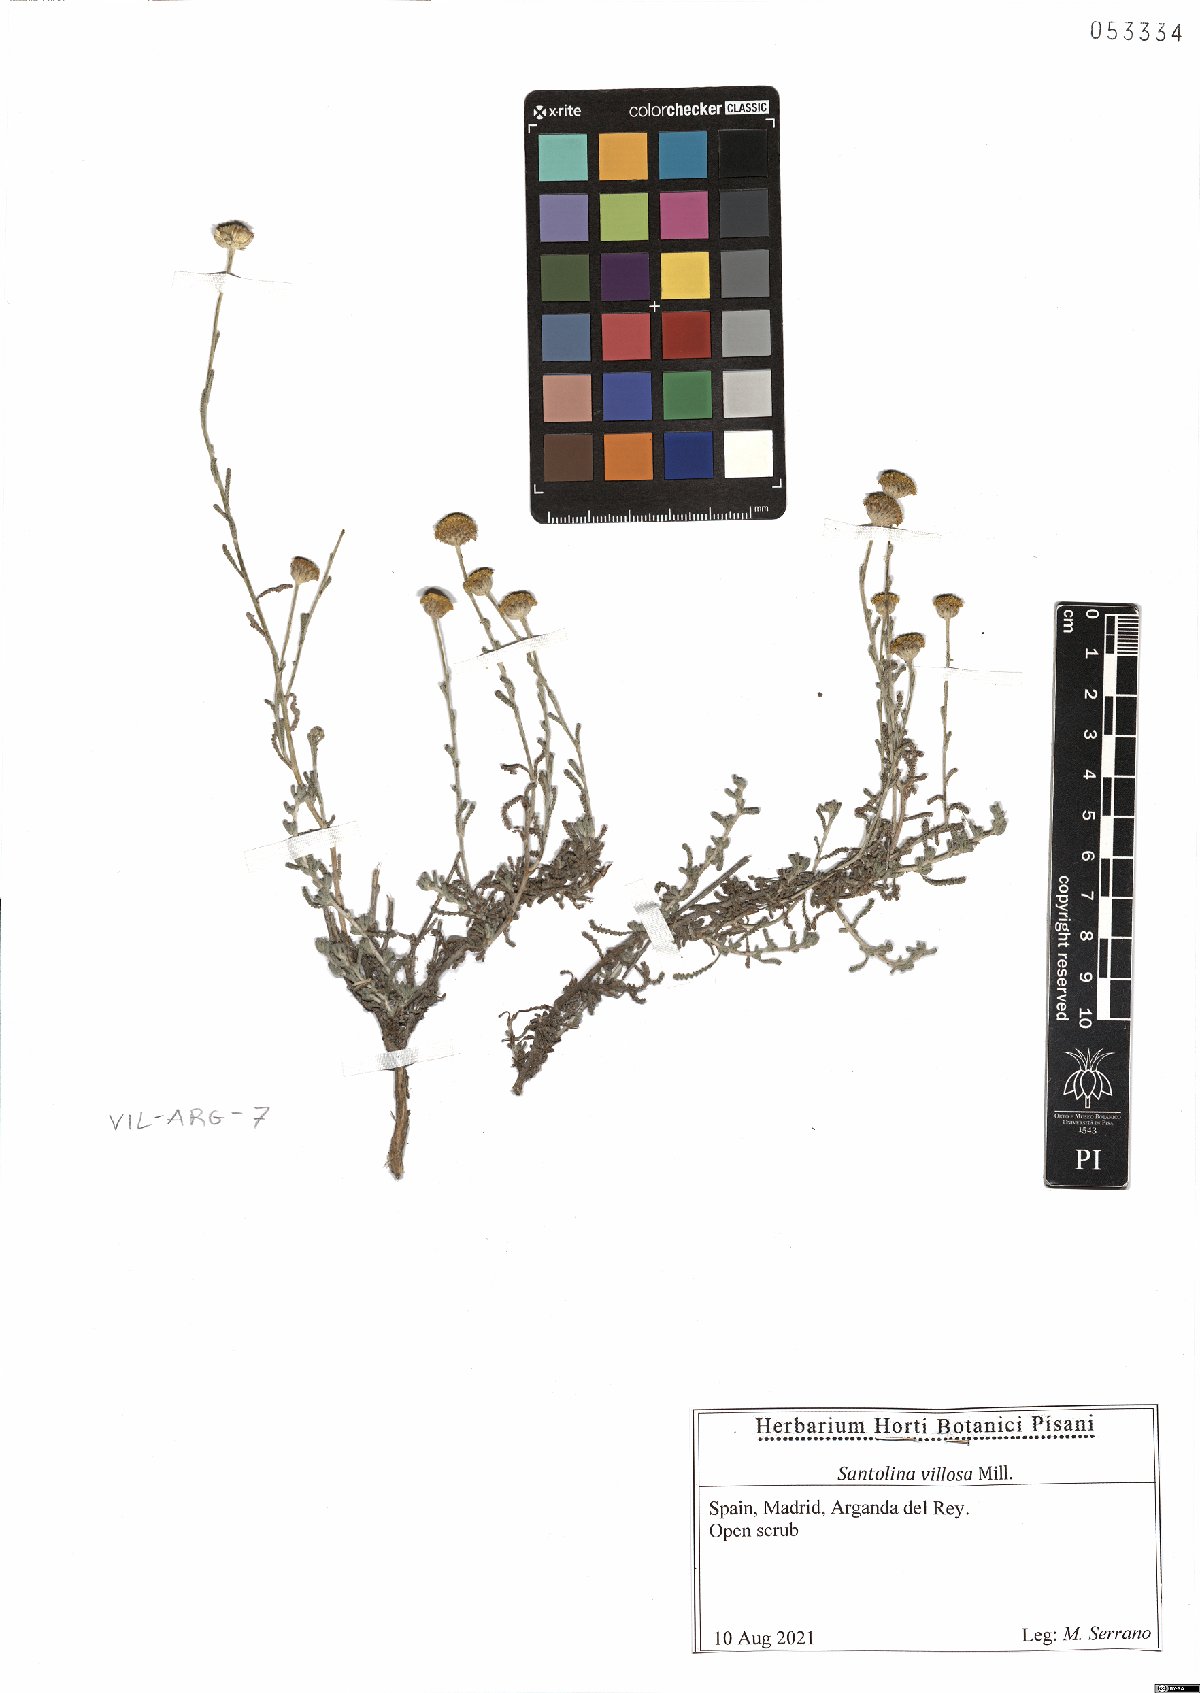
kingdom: Plantae
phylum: Tracheophyta
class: Magnoliopsida
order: Asterales
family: Asteraceae
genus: Santolina
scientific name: Santolina chamaecyparissus
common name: Lavender-cotton
